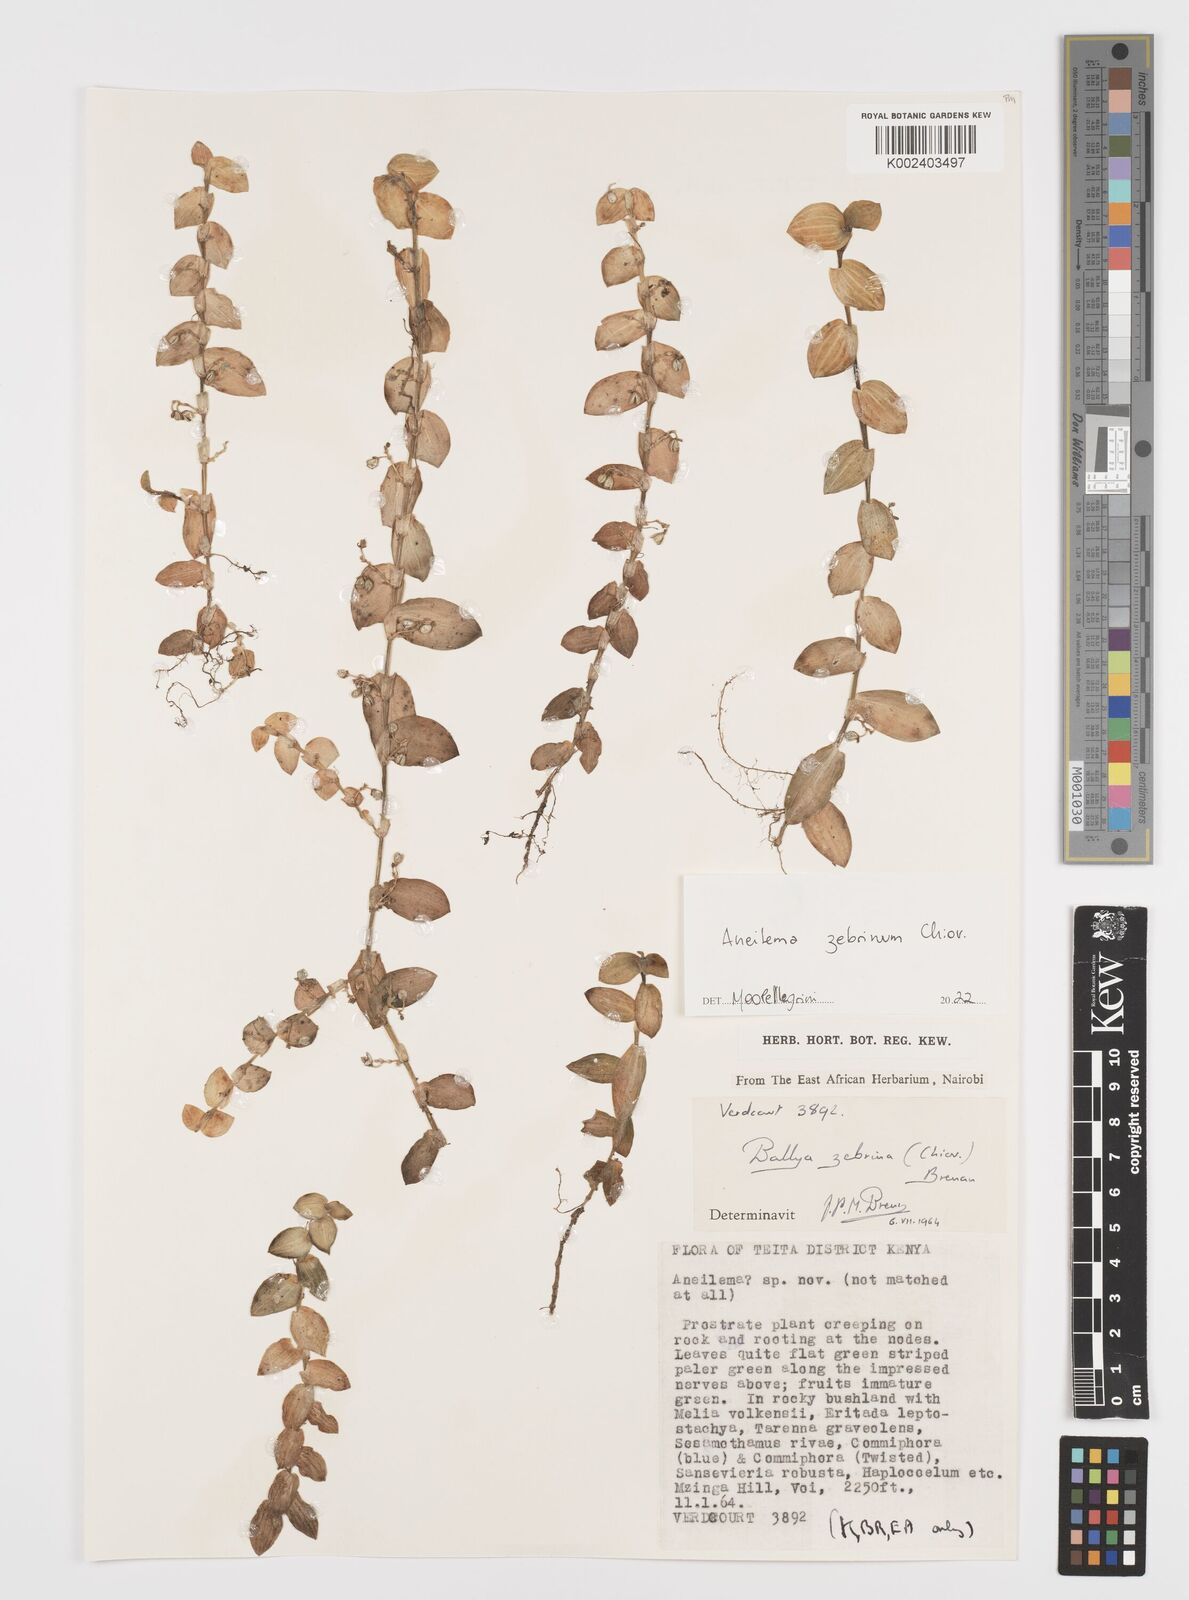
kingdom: Plantae
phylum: Tracheophyta
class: Liliopsida
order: Commelinales
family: Commelinaceae
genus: Aneilema
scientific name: Aneilema zebrinum
